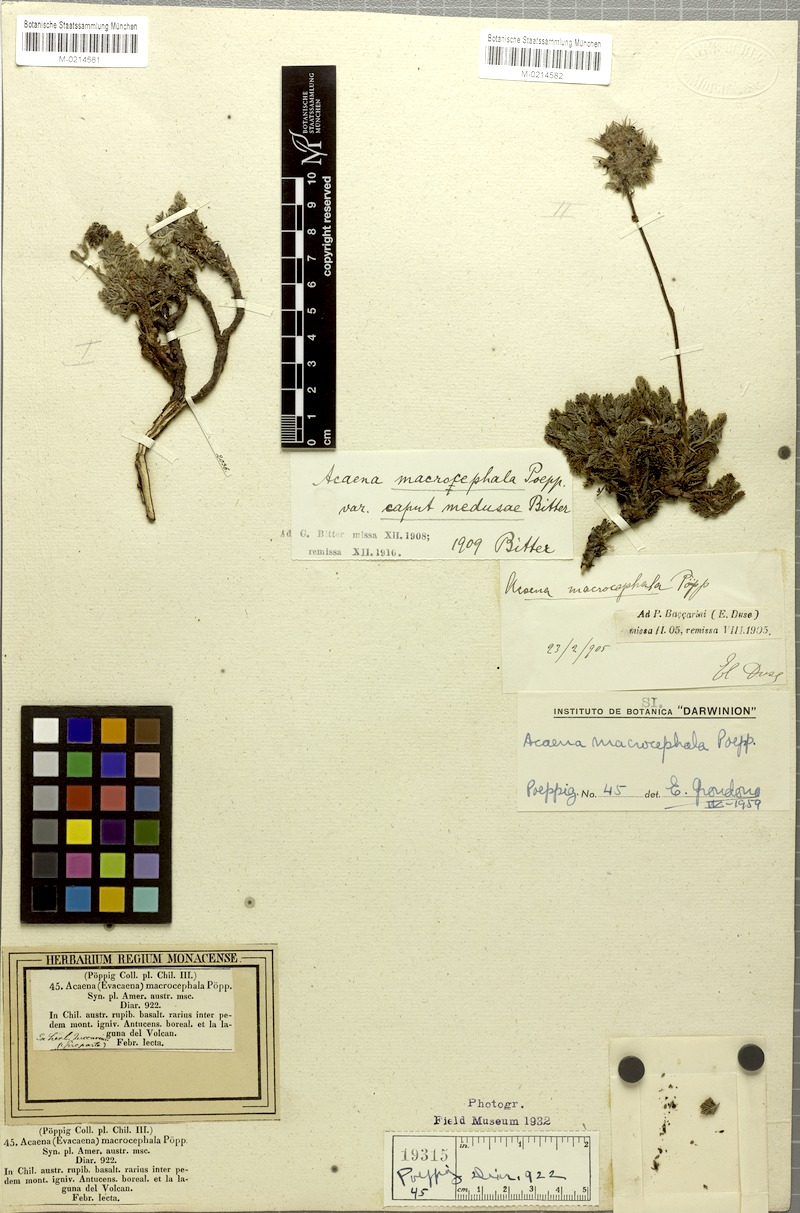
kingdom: Plantae
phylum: Tracheophyta
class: Magnoliopsida
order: Rosales
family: Rosaceae
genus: Acaena
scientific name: Acaena macrocephala
